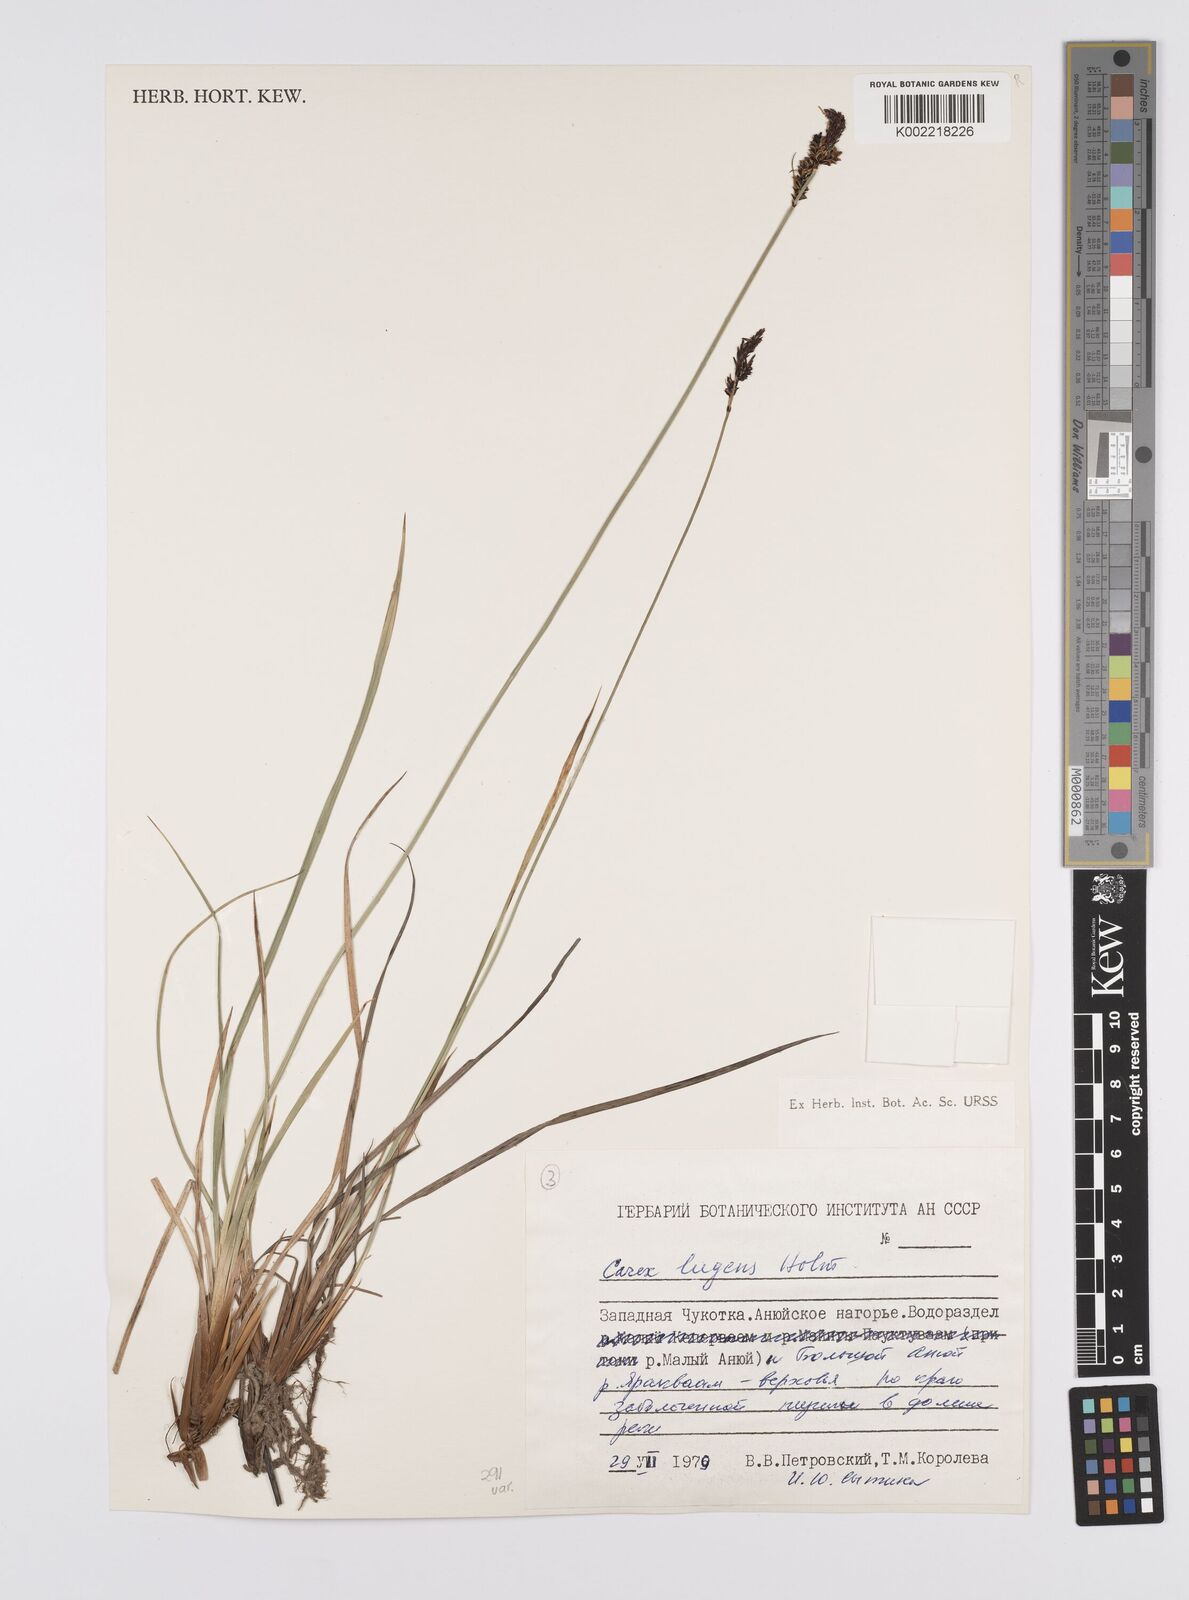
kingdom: Plantae
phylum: Tracheophyta
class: Liliopsida
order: Poales
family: Cyperaceae
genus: Carex
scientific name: Carex bigelowii
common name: Stiff sedge
